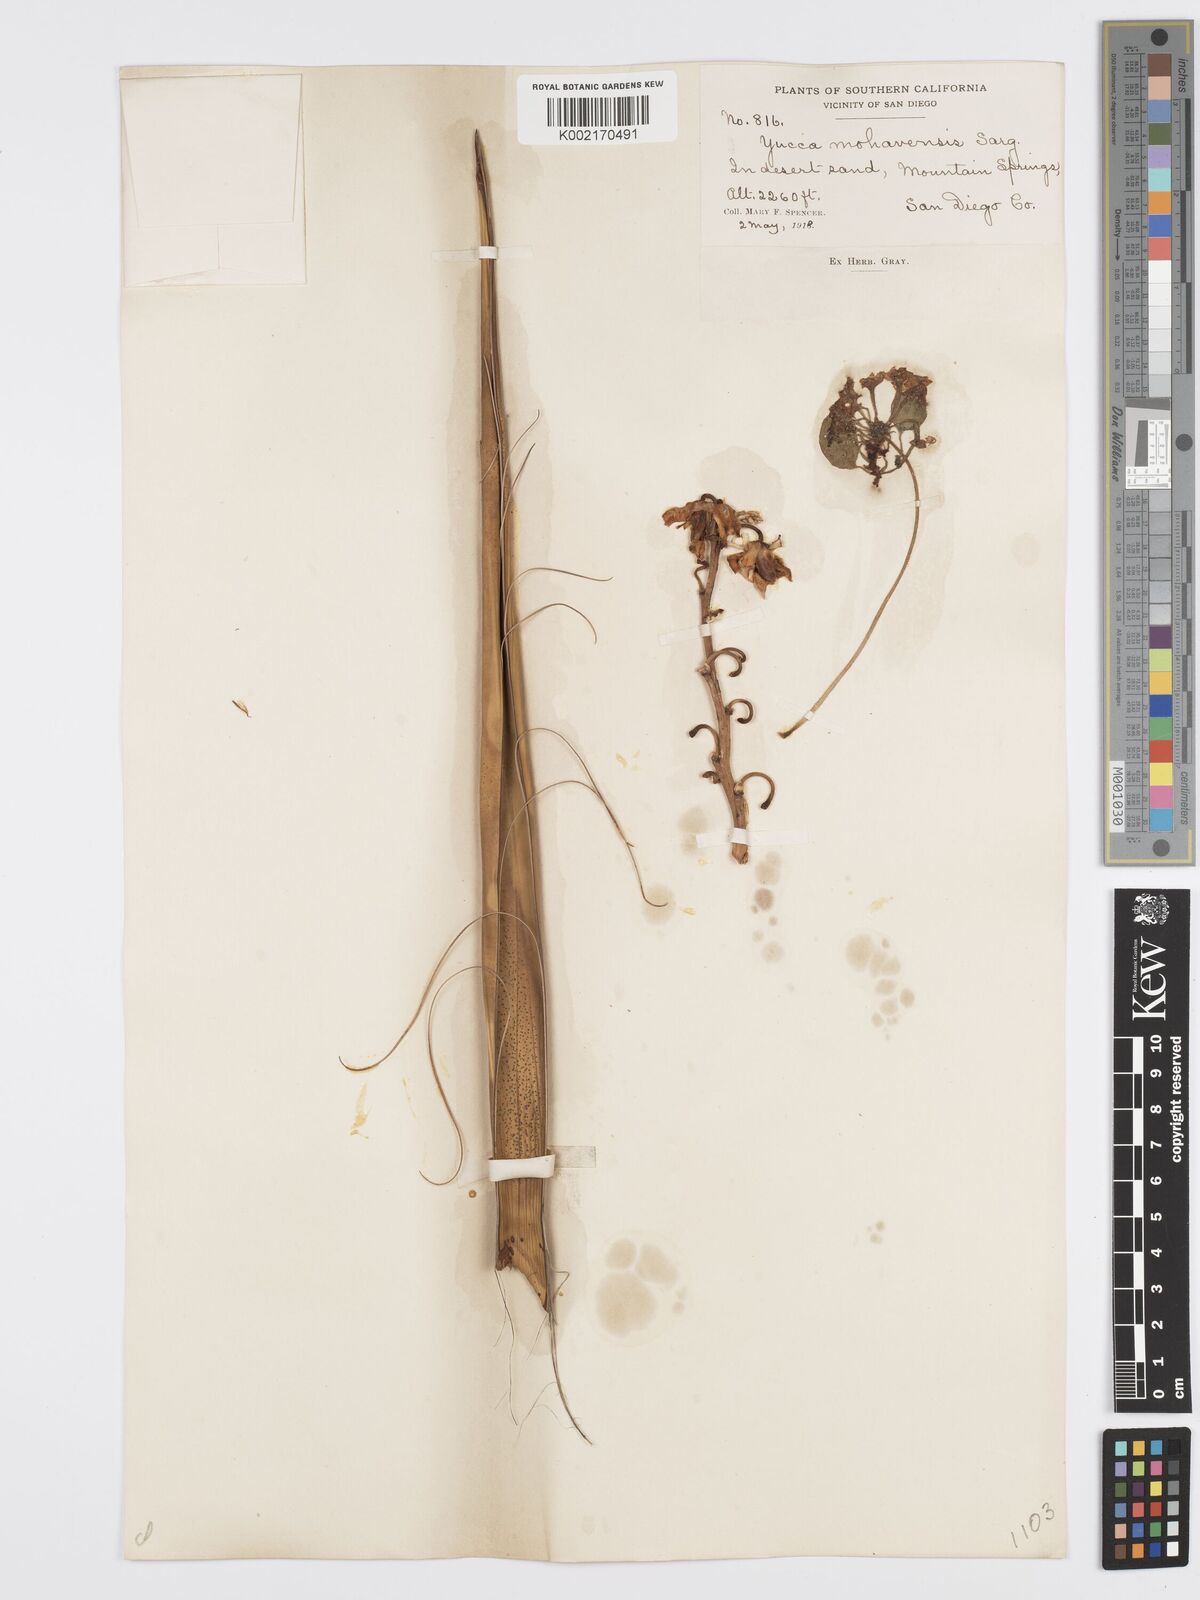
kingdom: Plantae
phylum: Tracheophyta
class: Liliopsida
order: Asparagales
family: Asparagaceae
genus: Yucca
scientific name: Yucca schidigera
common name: Mojave yucca
